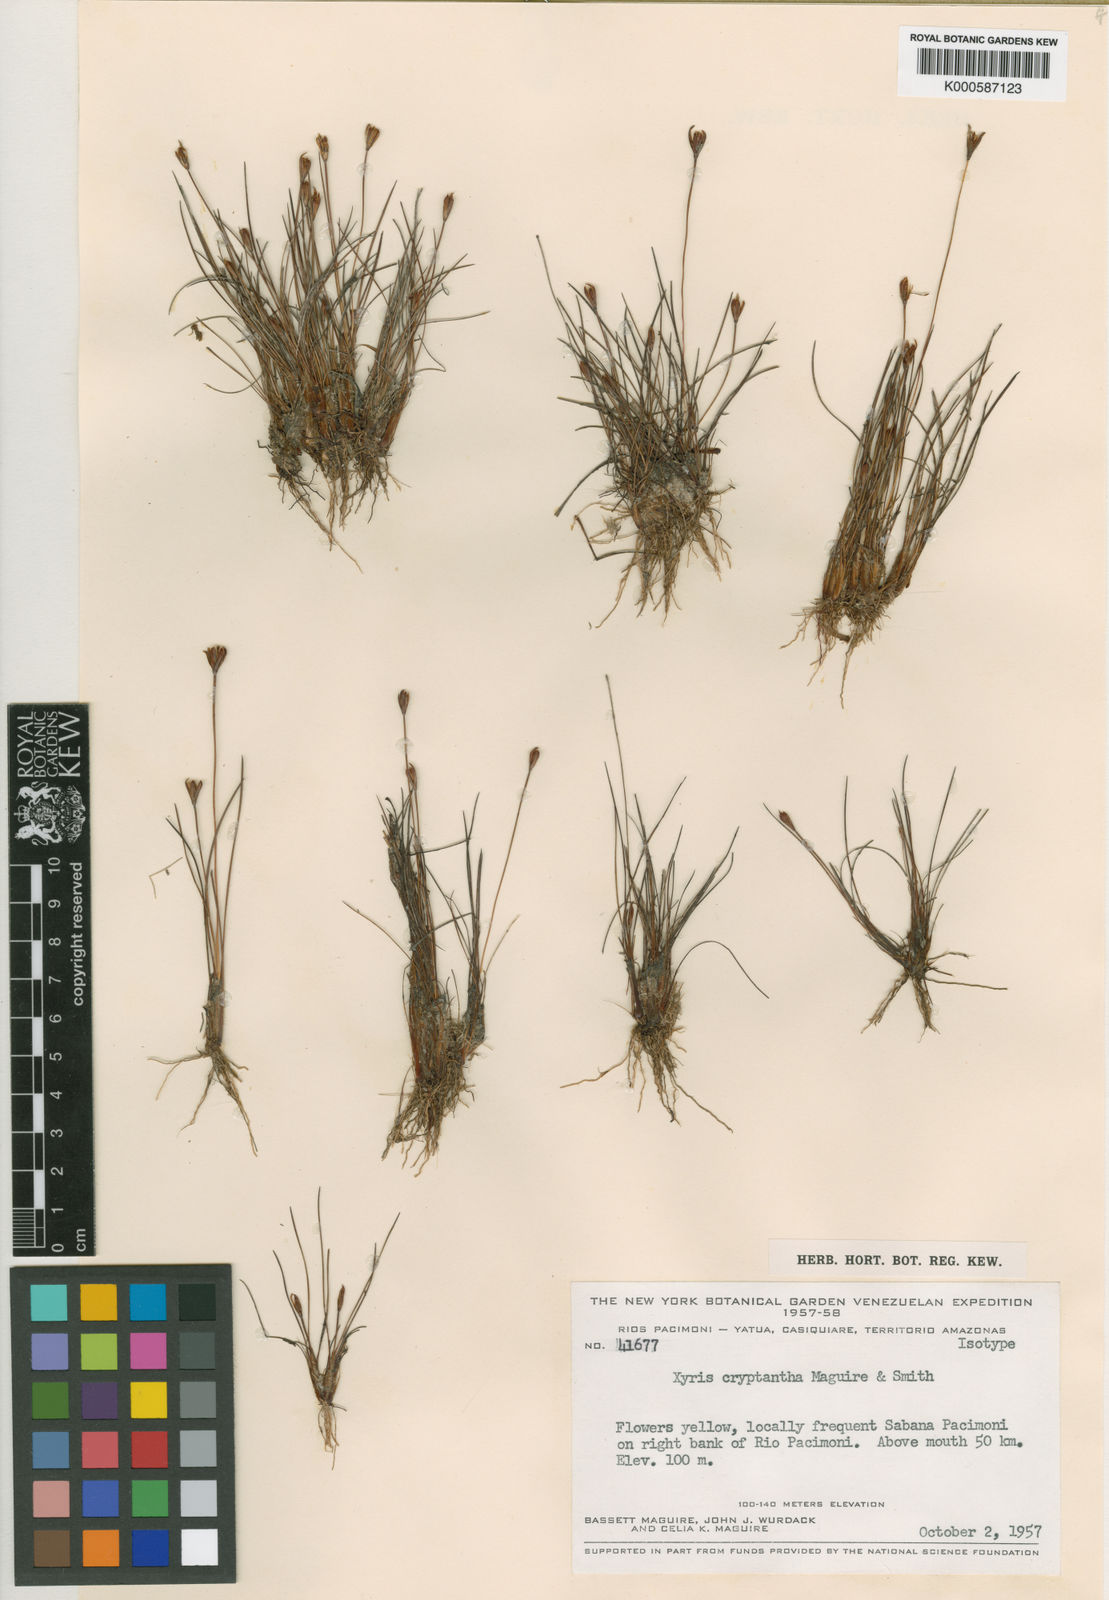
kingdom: Plantae
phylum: Tracheophyta
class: Liliopsida
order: Poales
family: Xyridaceae
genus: Xyris
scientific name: Xyris cryptantha
